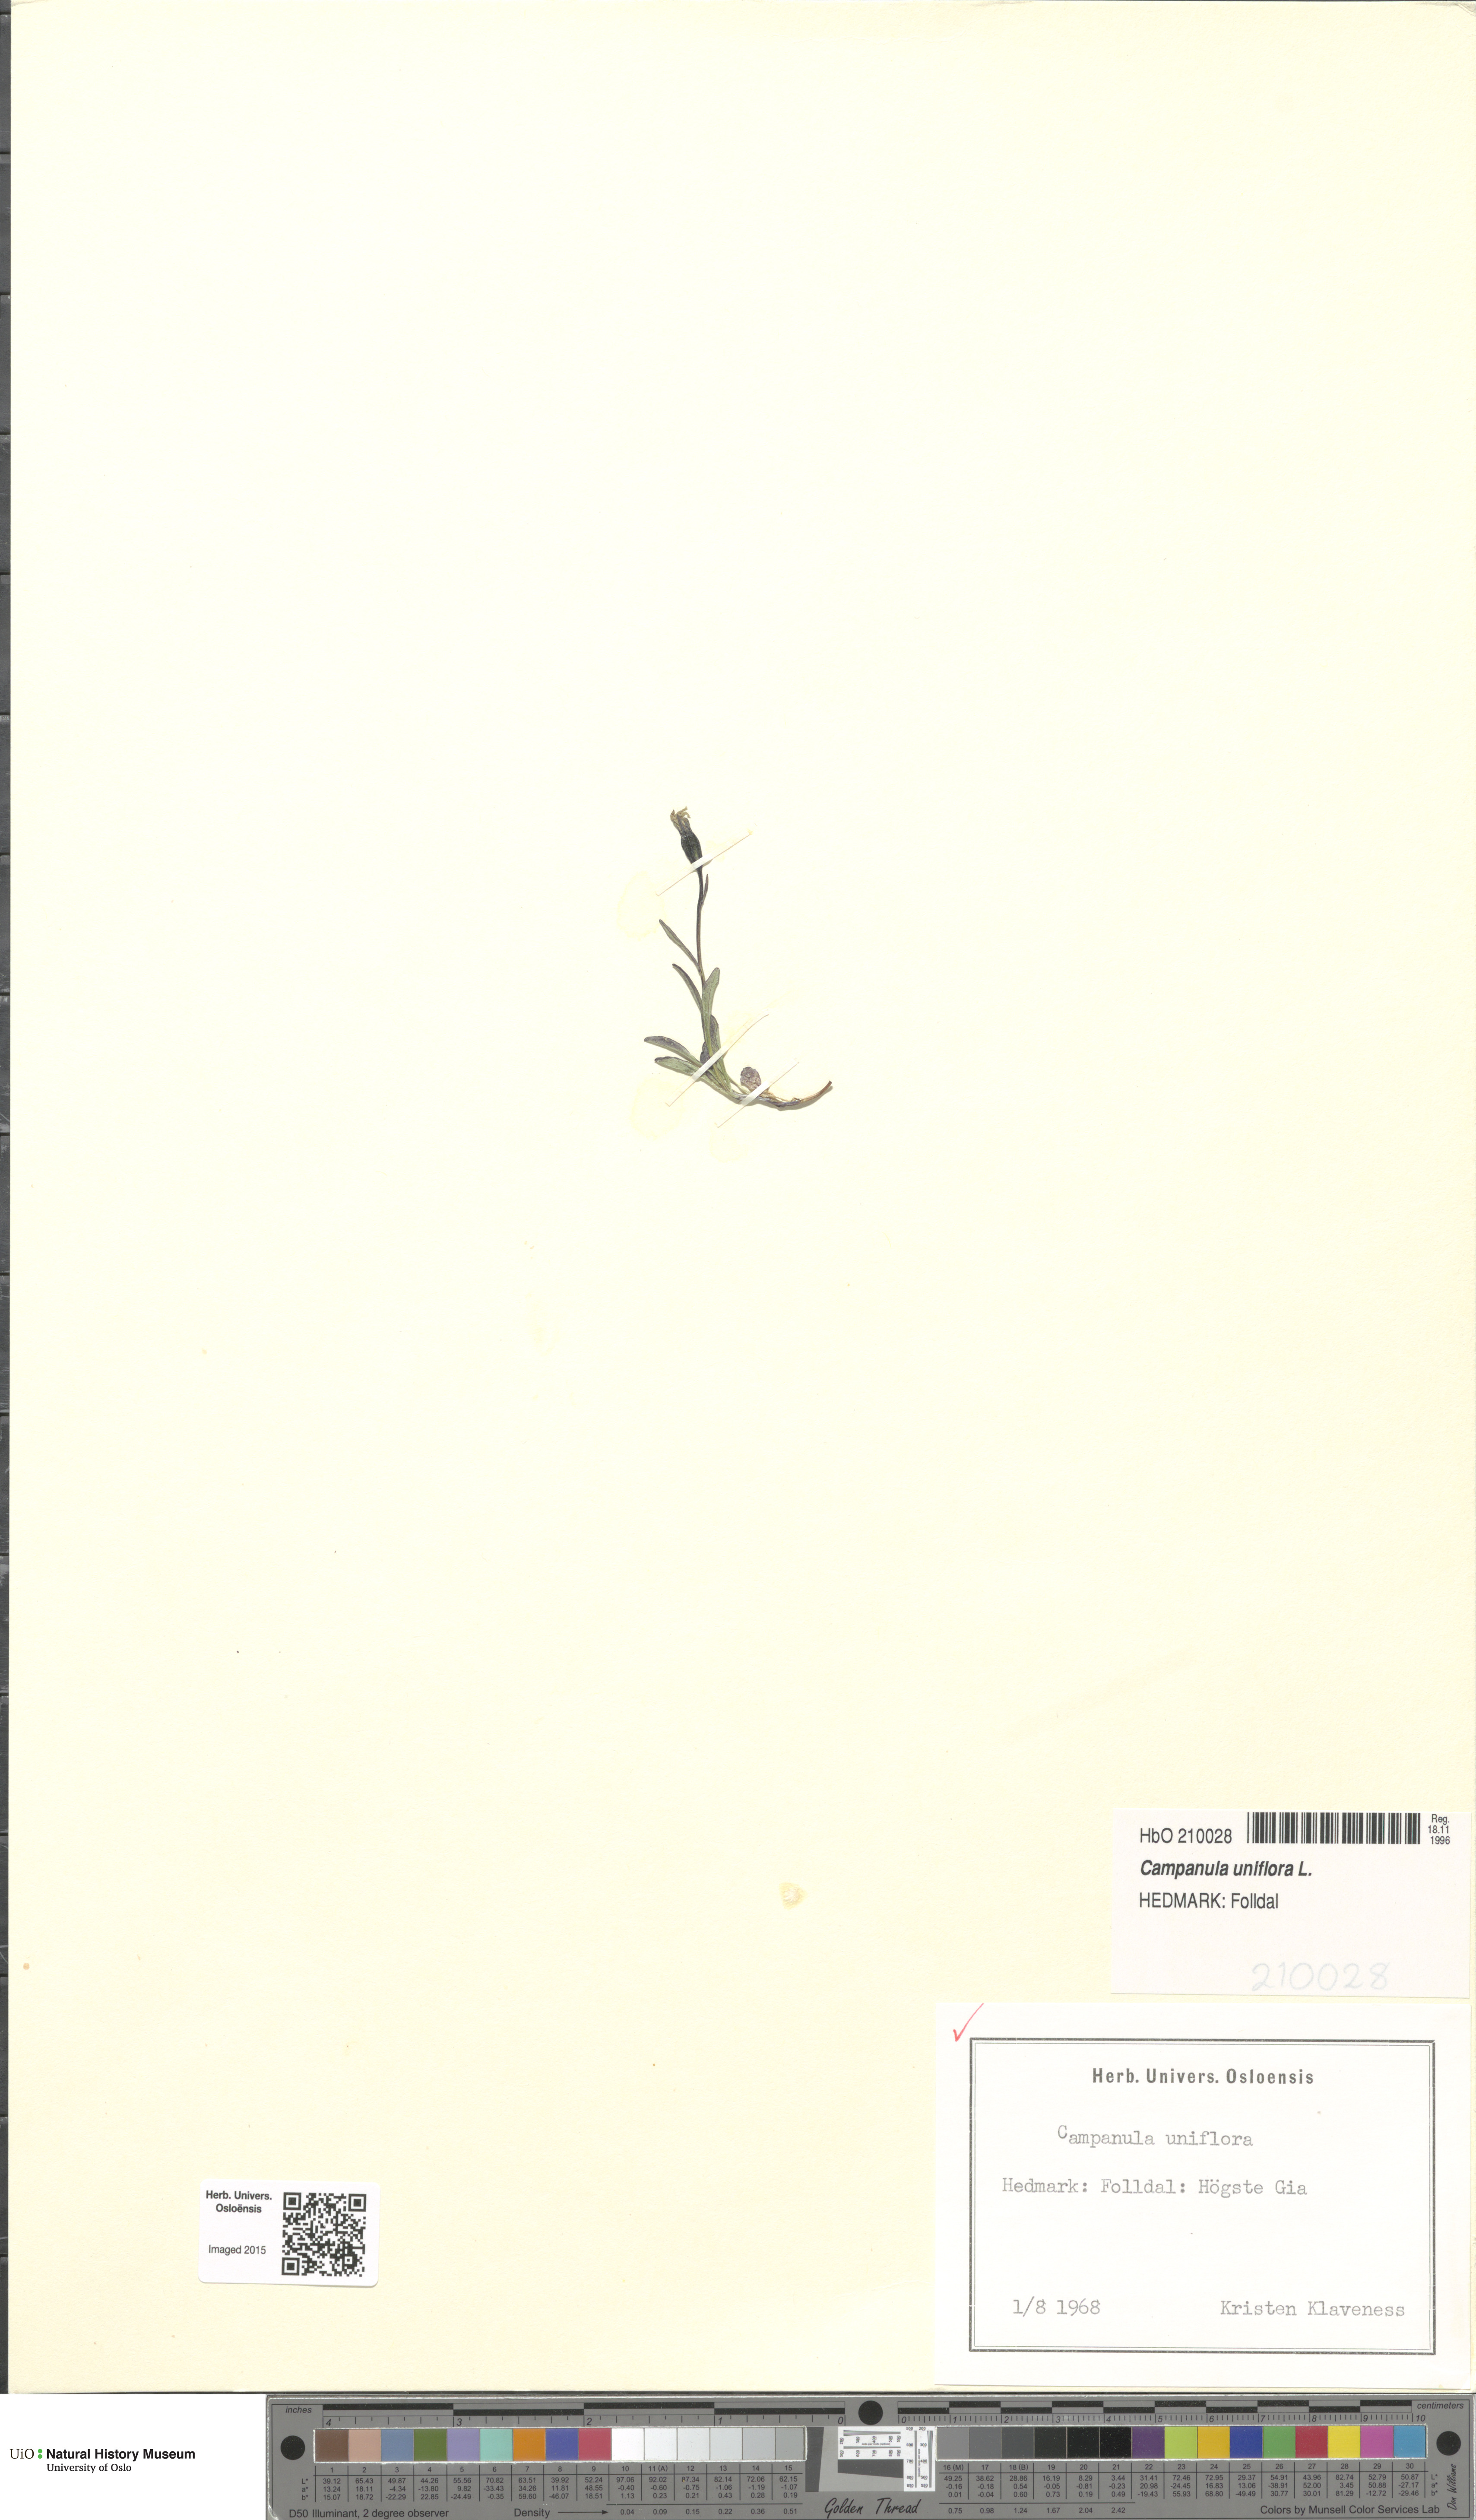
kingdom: Plantae
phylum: Tracheophyta
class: Magnoliopsida
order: Asterales
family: Campanulaceae
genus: Melanocalyx
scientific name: Melanocalyx uniflora
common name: Alpine harebell
